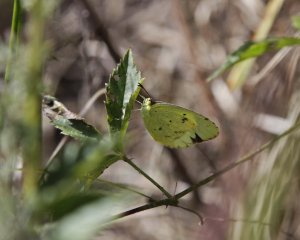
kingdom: Animalia
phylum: Arthropoda
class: Insecta
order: Lepidoptera
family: Pieridae
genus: Pyrisitia
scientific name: Pyrisitia lisa
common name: Little Yellow
